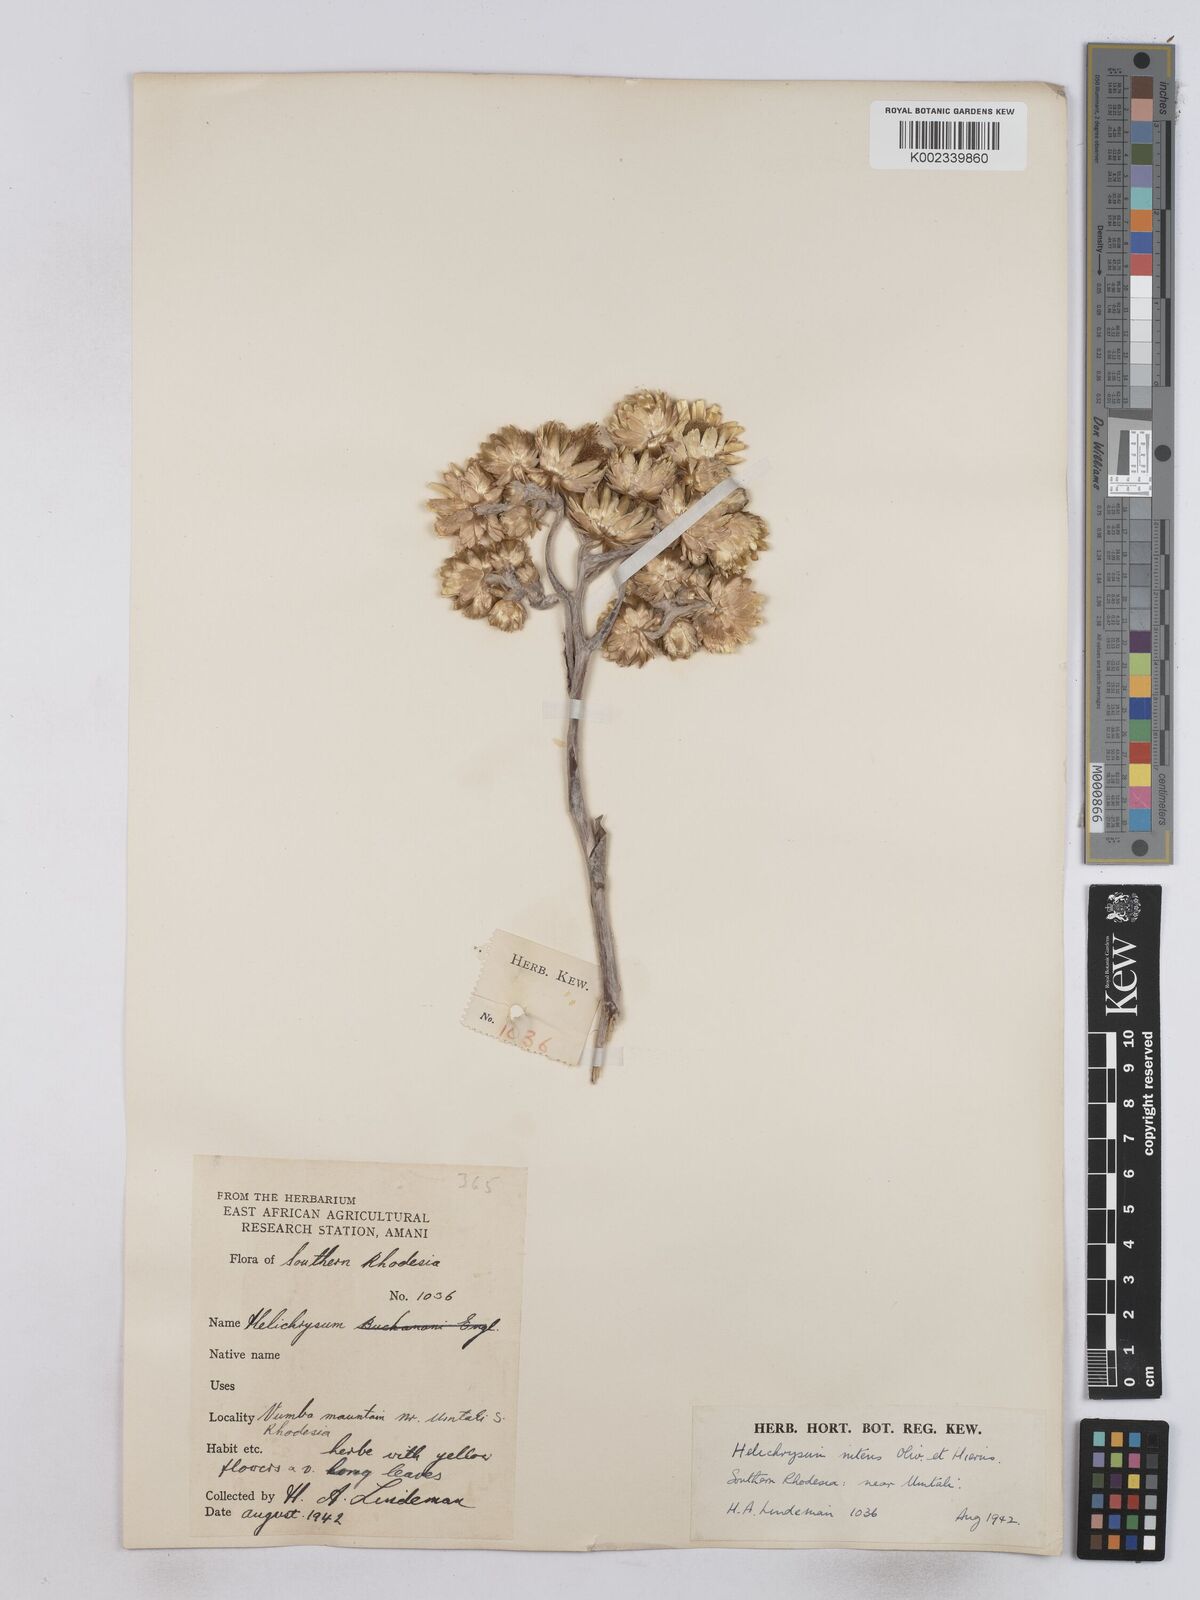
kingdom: Plantae
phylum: Tracheophyta
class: Magnoliopsida
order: Asterales
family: Asteraceae
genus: Helichrysum
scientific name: Helichrysum nitens
